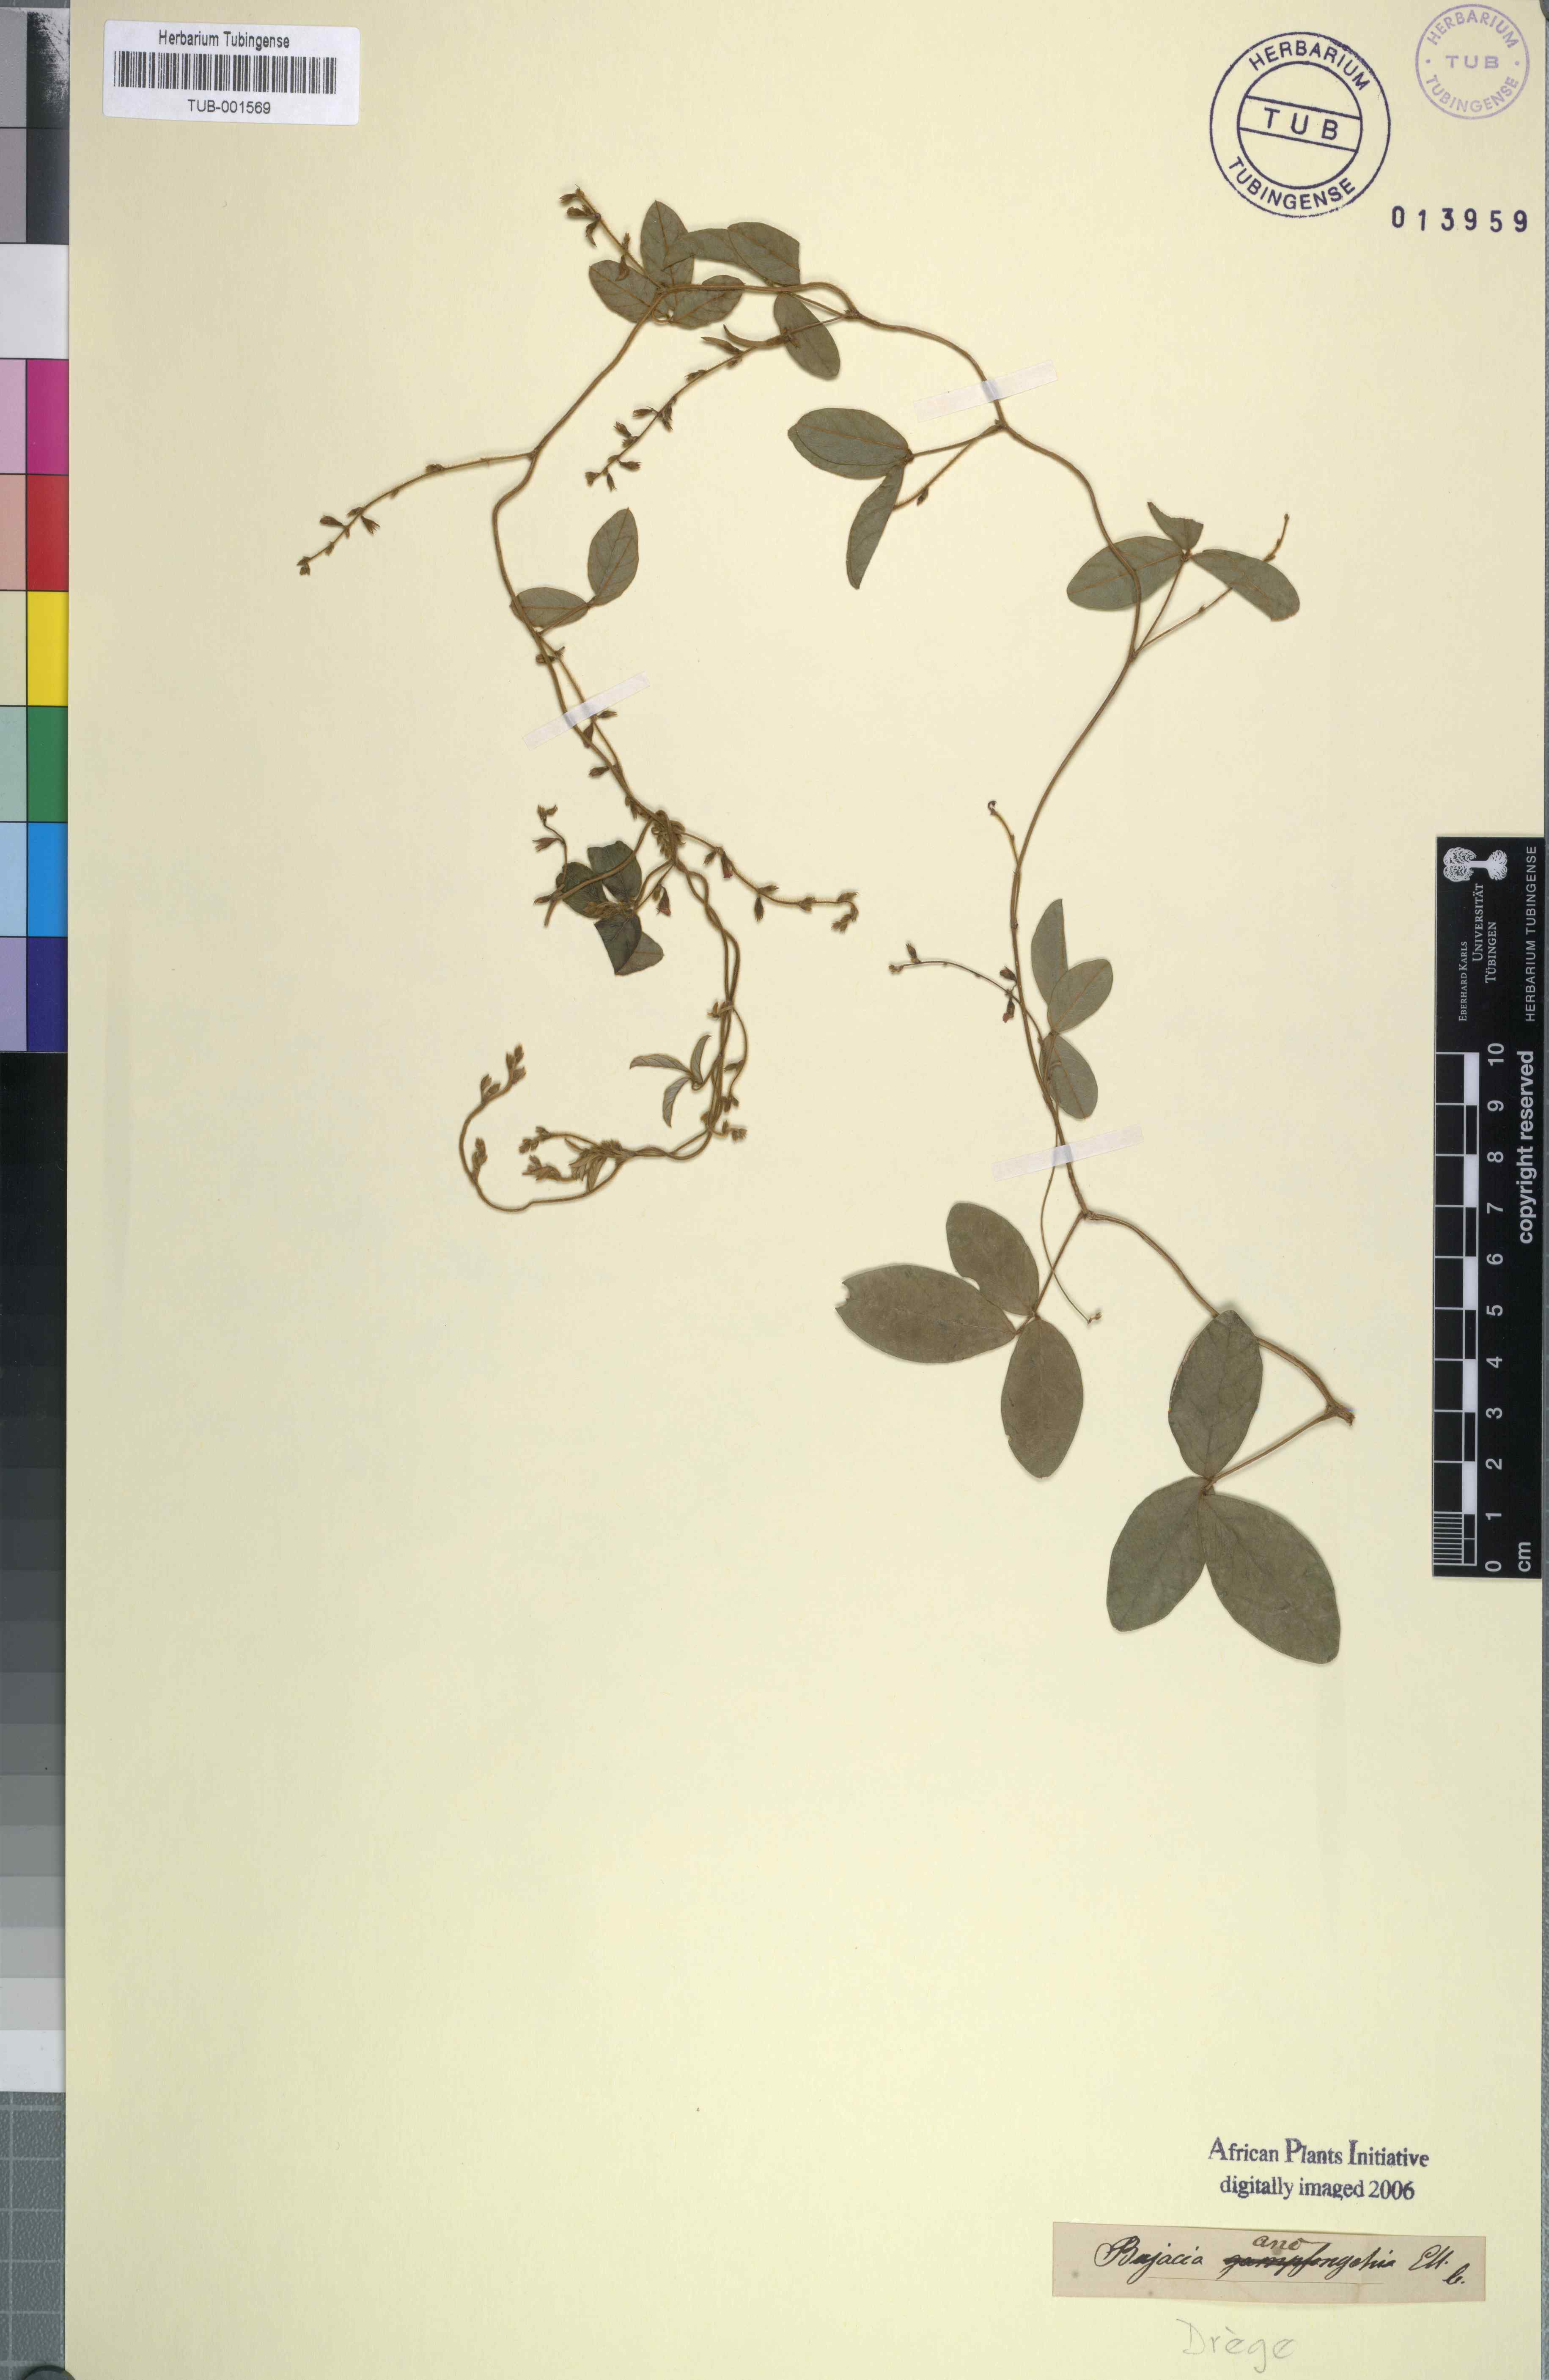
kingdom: Plantae
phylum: Tracheophyta
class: Magnoliopsida
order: Fabales
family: Fabaceae
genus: Pueraria
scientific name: Pueraria montana
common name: Kudzu
